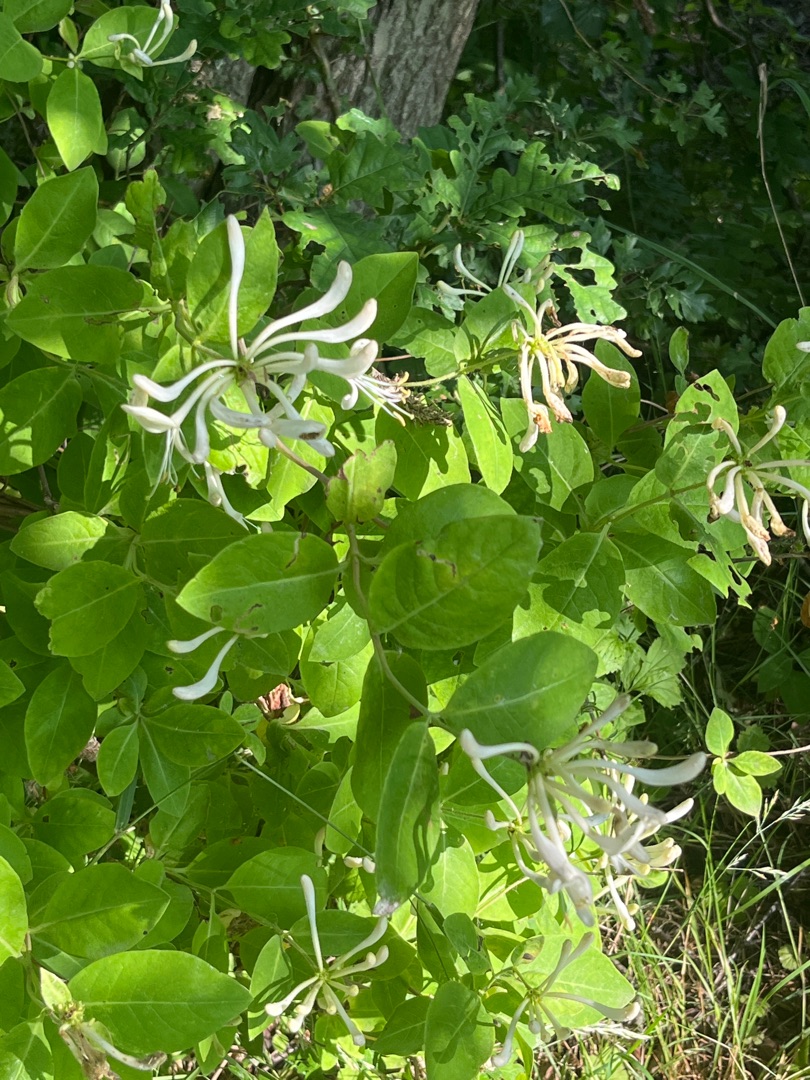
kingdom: Plantae
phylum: Tracheophyta
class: Magnoliopsida
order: Dipsacales
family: Caprifoliaceae
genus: Lonicera
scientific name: Lonicera periclymenum
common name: Almindelig gedeblad
